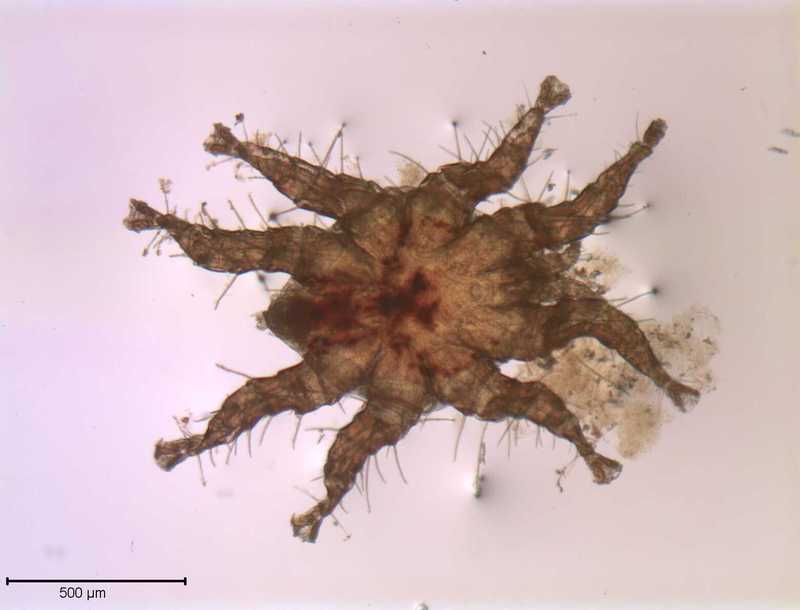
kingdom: Animalia
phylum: Arthropoda
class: Arachnida
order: Mesostigmata
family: Spinturnicidae
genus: Spinturnix
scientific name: Spinturnix americana
